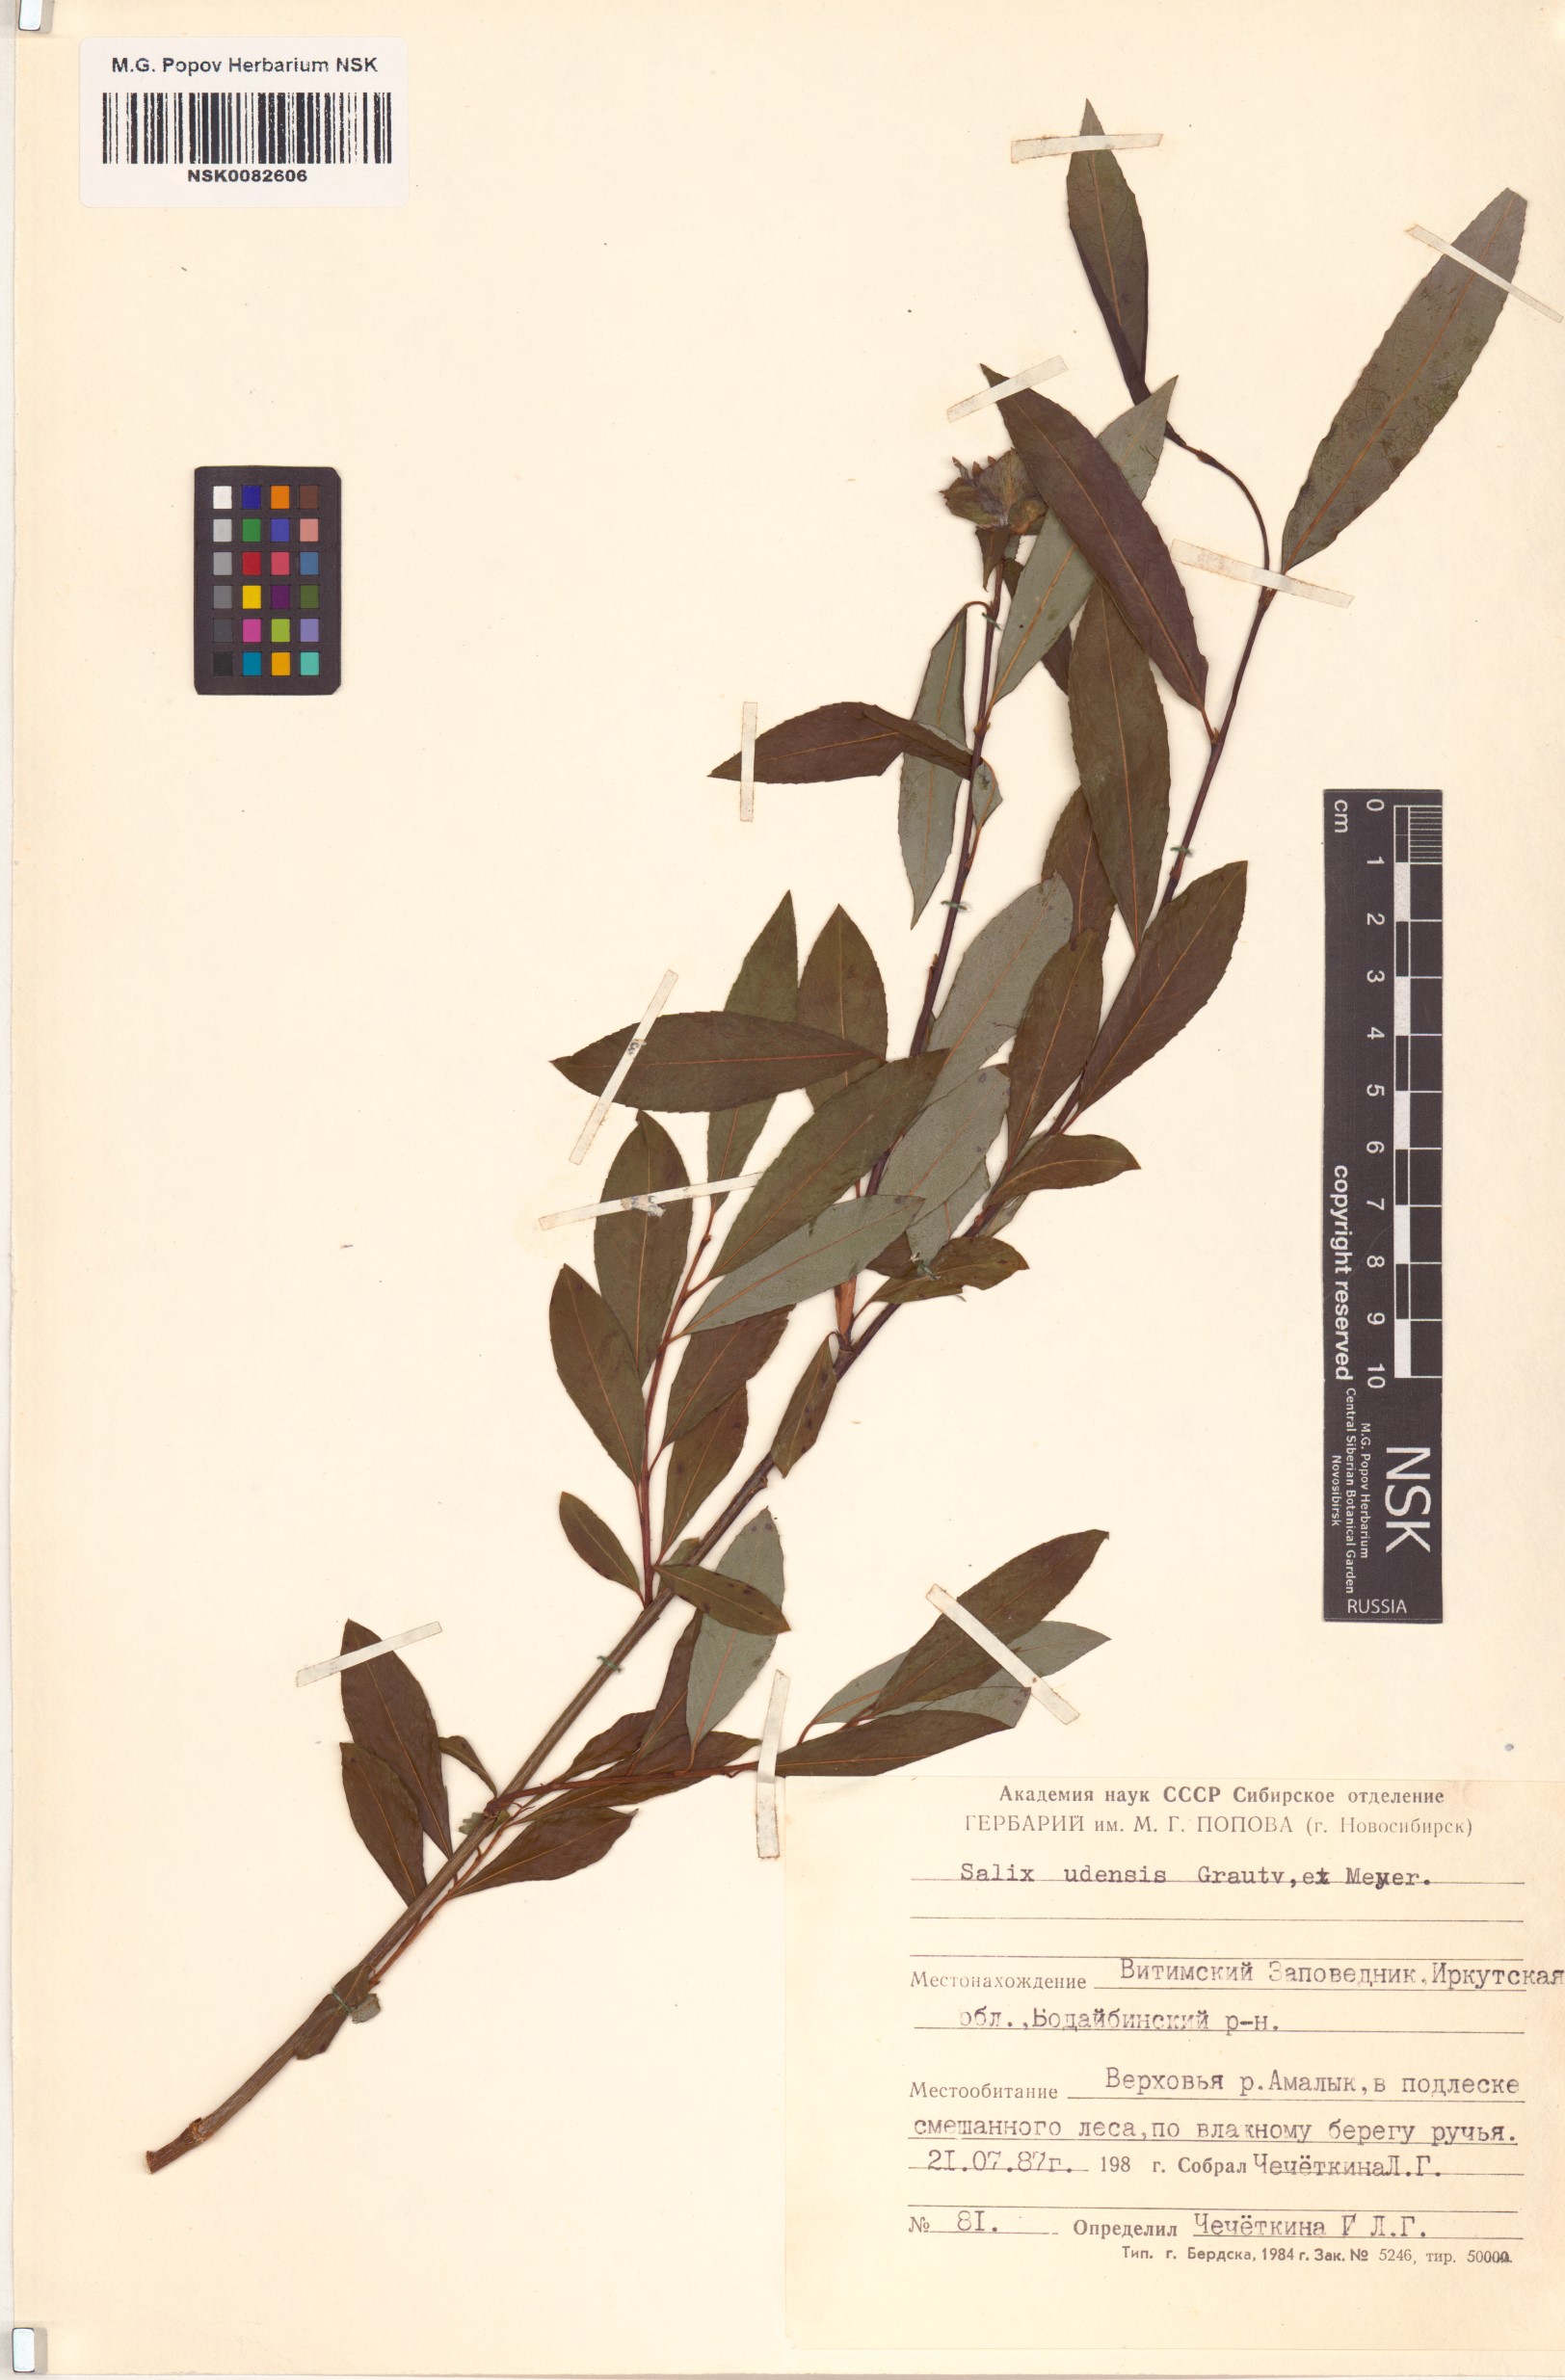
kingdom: Plantae
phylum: Tracheophyta
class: Magnoliopsida
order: Malpighiales
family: Salicaceae
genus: Salix
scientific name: Salix udensis
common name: Sachalin willow
